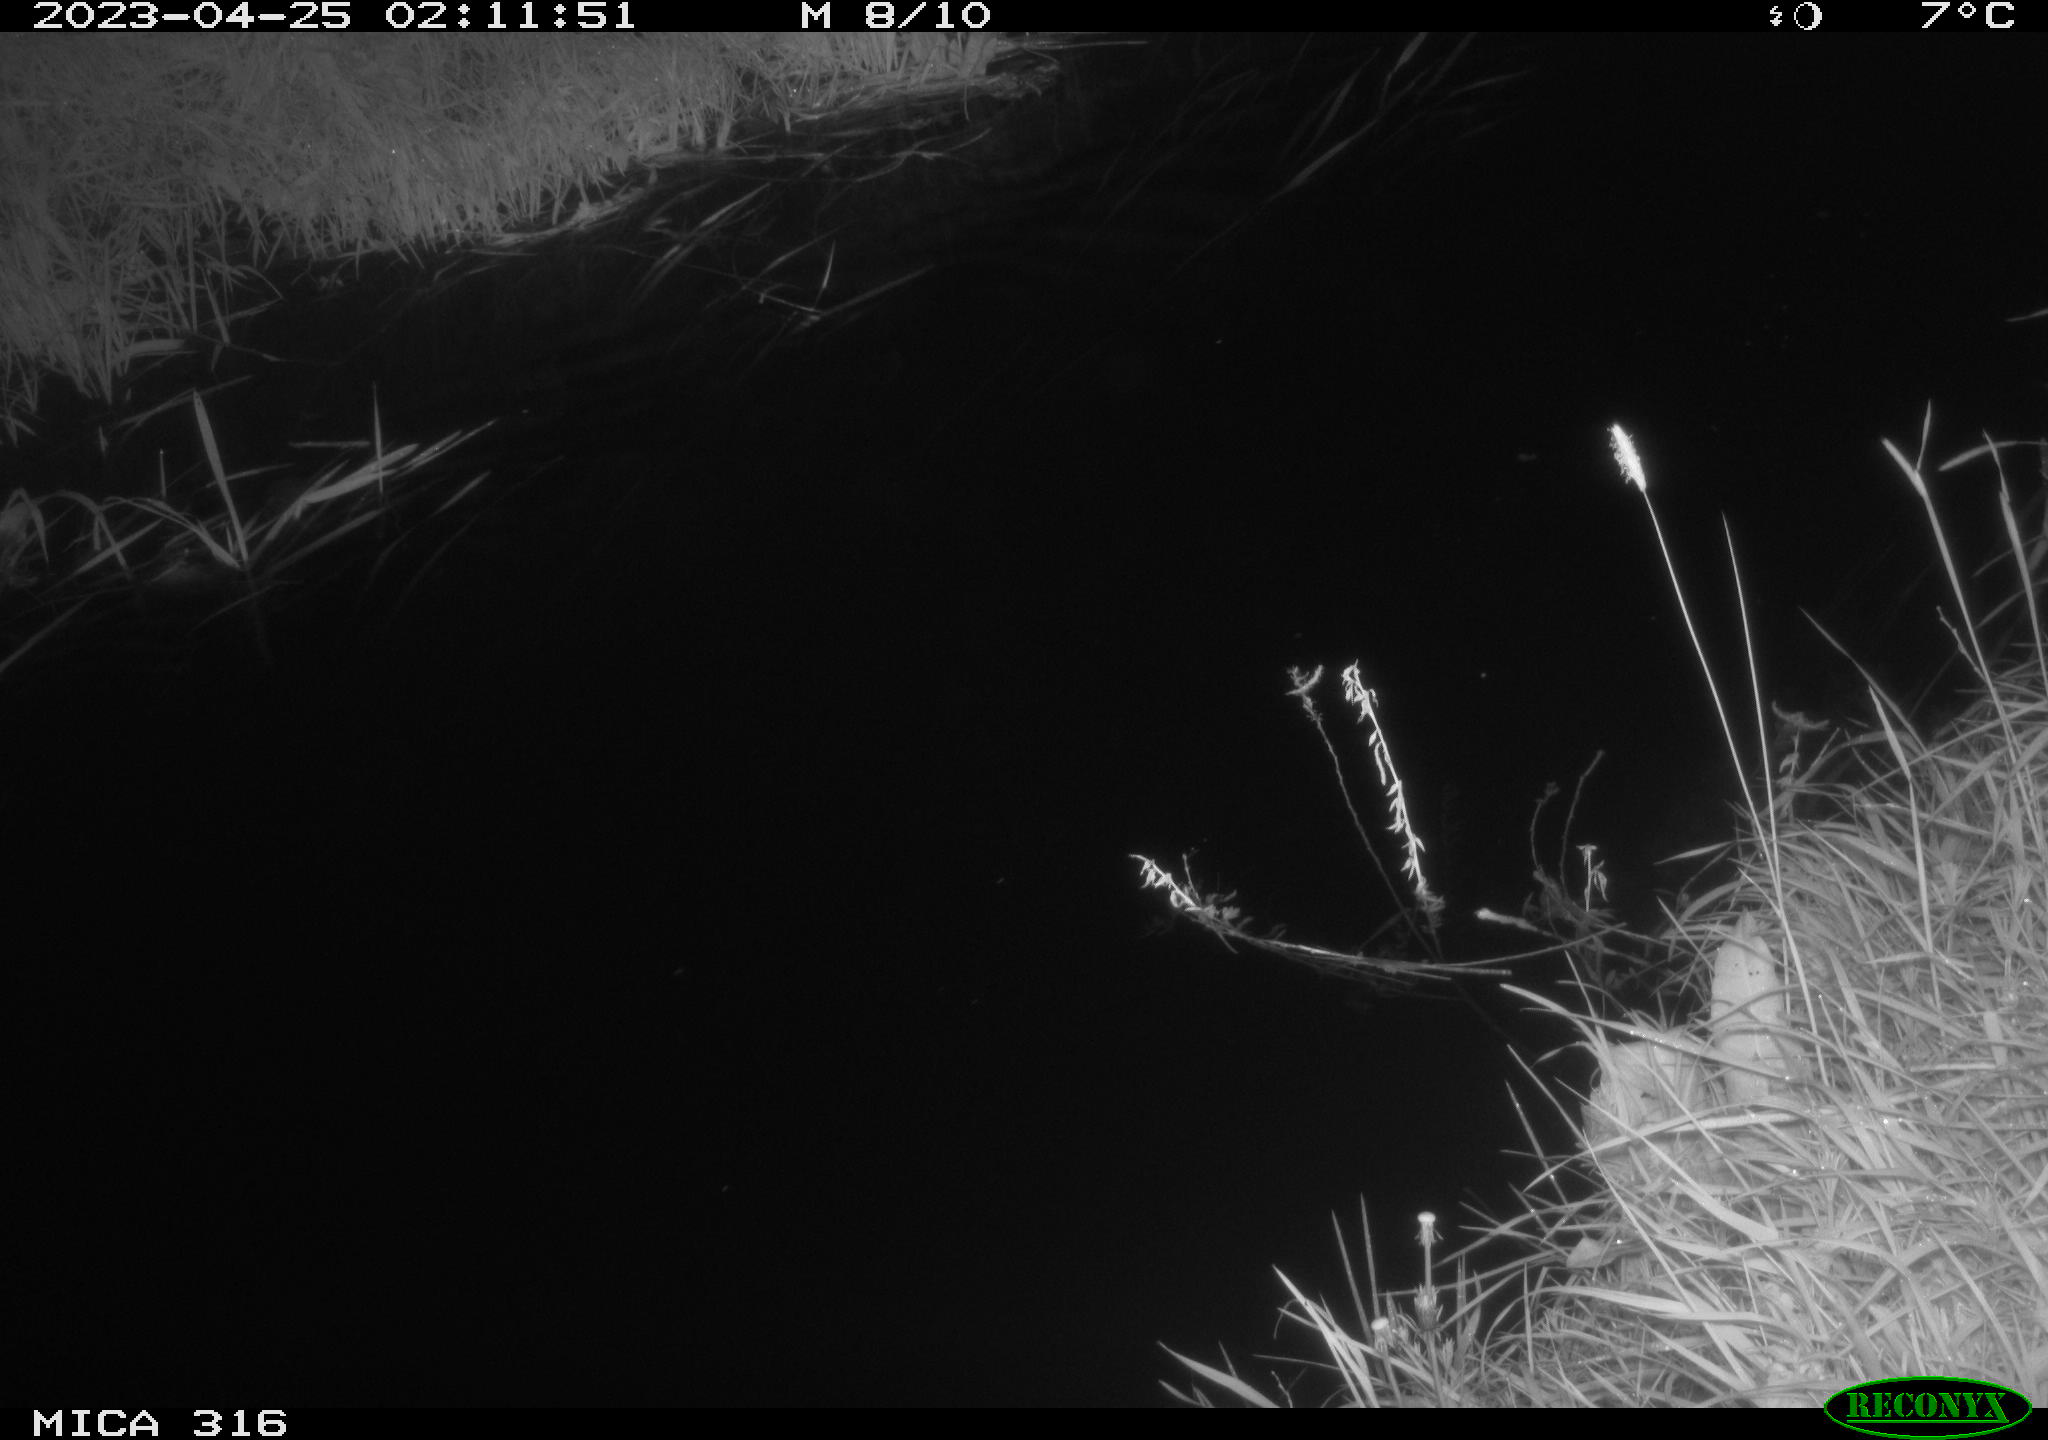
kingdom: Animalia
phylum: Chordata
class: Mammalia
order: Rodentia
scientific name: Rodentia
